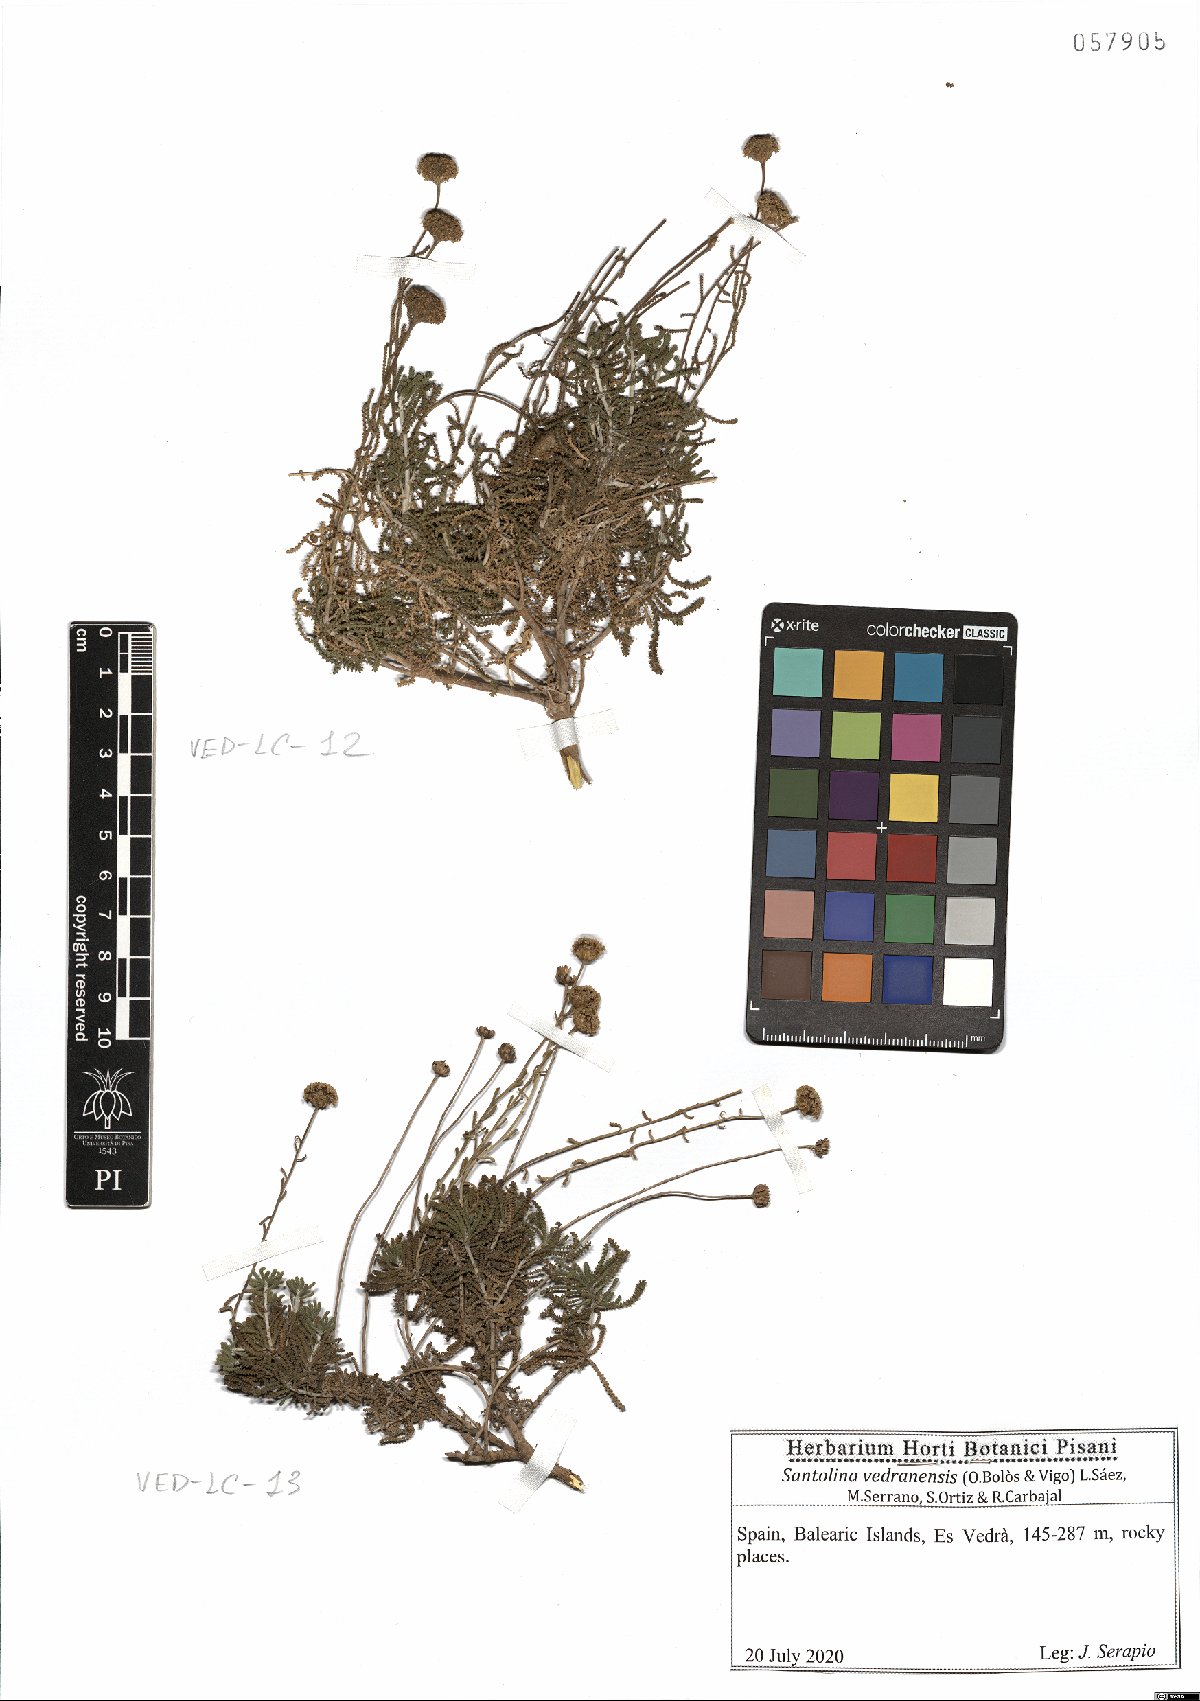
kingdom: Plantae
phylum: Tracheophyta
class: Magnoliopsida
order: Asterales
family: Asteraceae
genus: Santolina
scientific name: Santolina vedranensis
